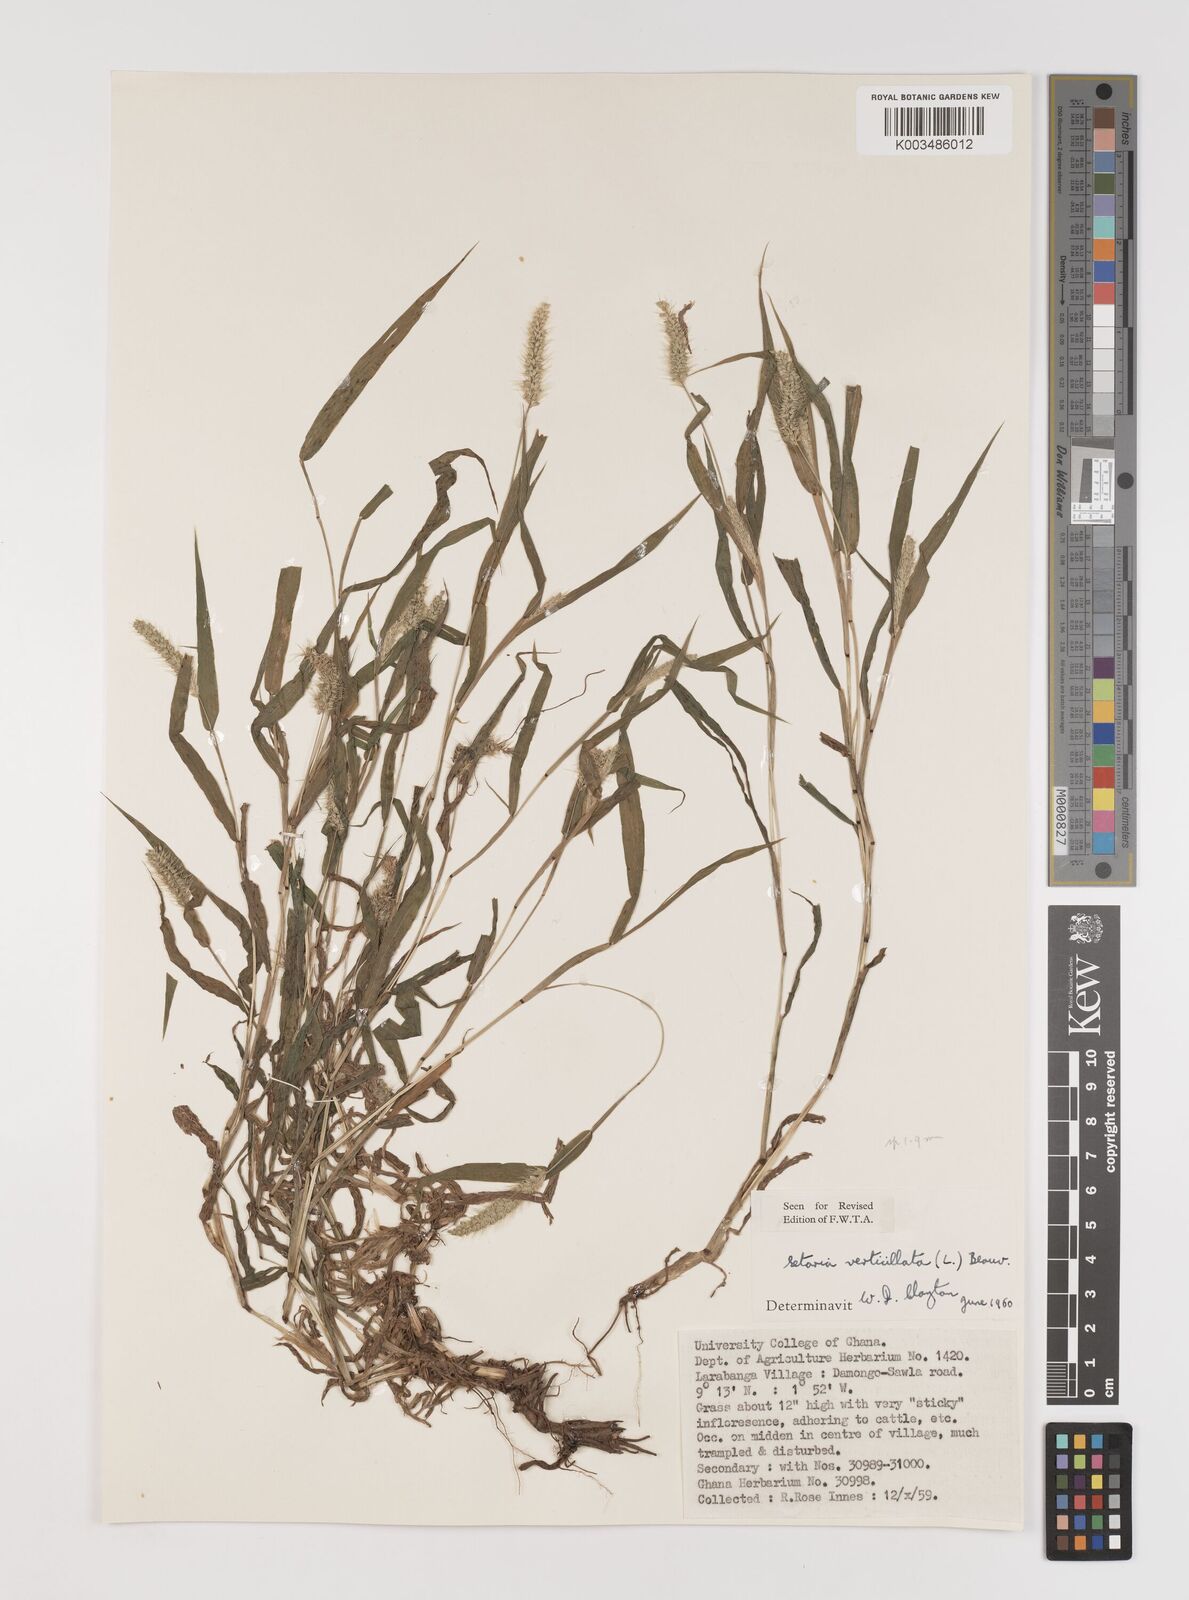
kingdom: Plantae
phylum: Tracheophyta
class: Liliopsida
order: Poales
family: Poaceae
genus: Setaria
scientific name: Setaria verticillata
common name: Hooked bristlegrass
